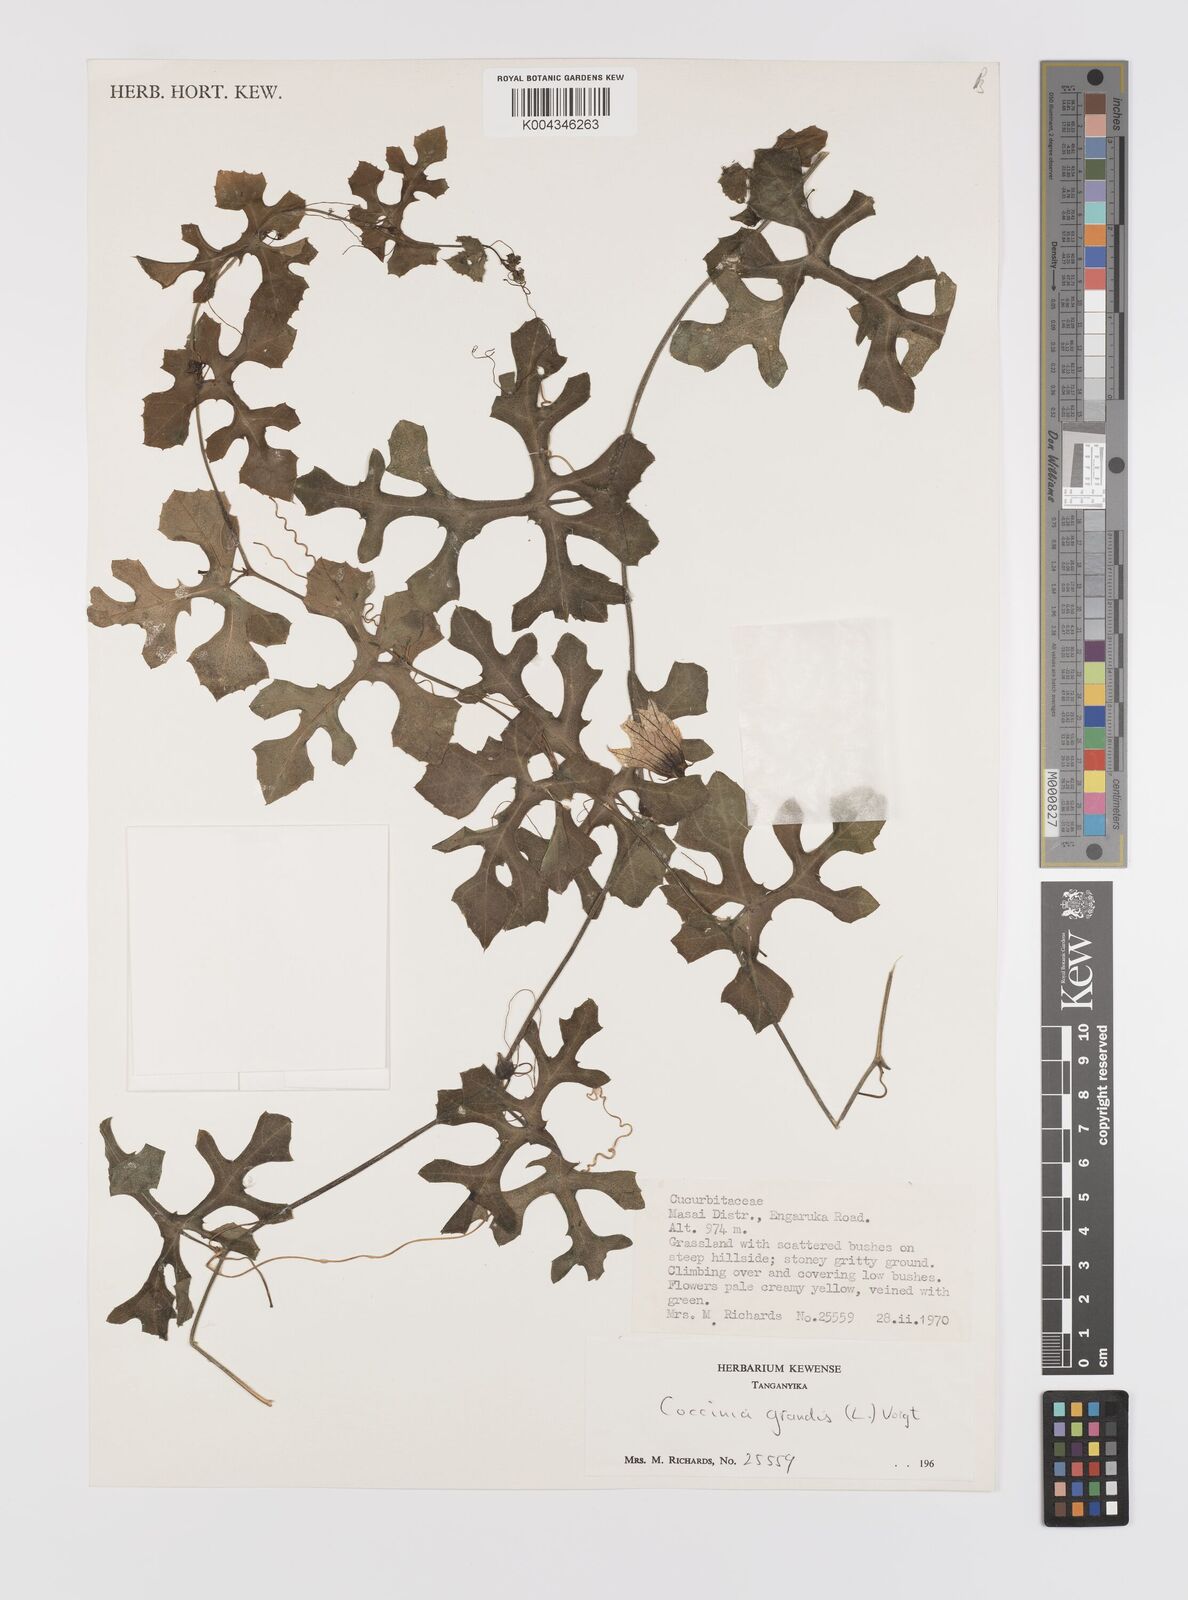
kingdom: Plantae
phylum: Tracheophyta
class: Magnoliopsida
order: Cucurbitales
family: Cucurbitaceae
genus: Coccinia
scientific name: Coccinia grandis
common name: Ivy gourd
